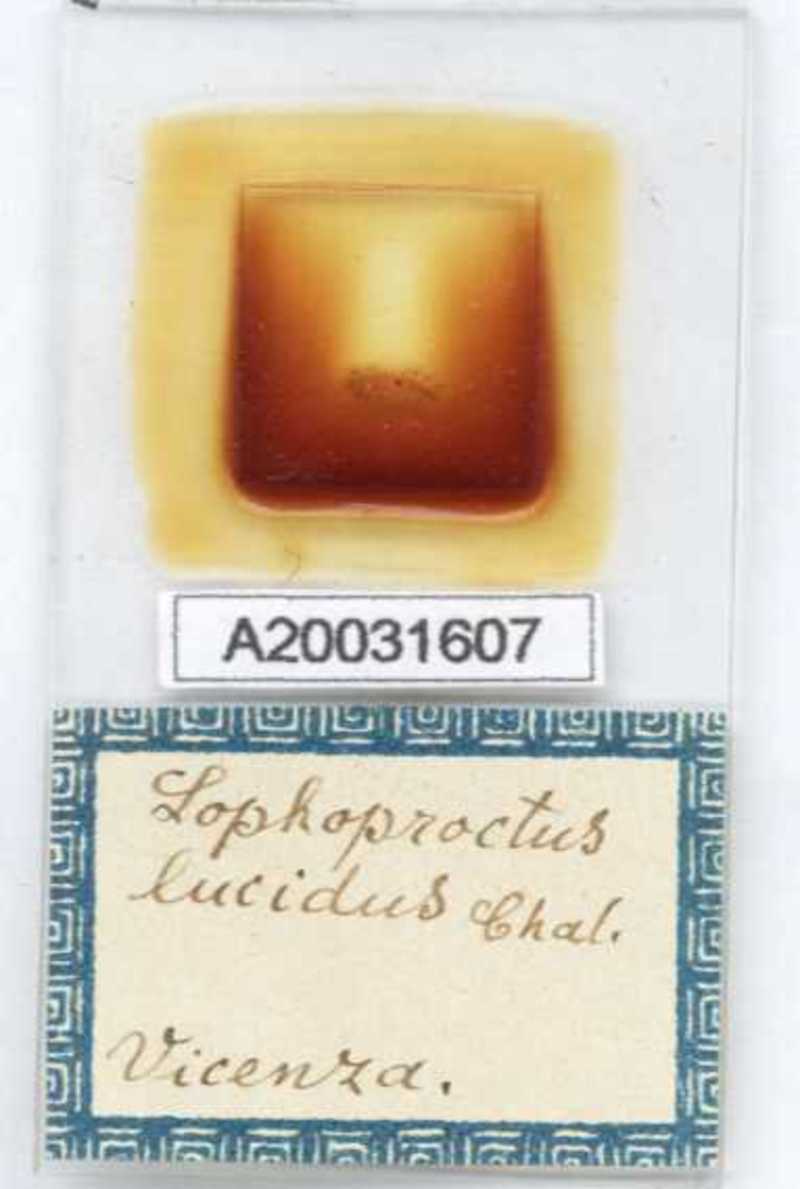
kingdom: Animalia
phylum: Arthropoda
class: Diplopoda
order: Polyxenida
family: Lophoproctidae
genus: Lophoproctus
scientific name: Lophoproctus lucidus
